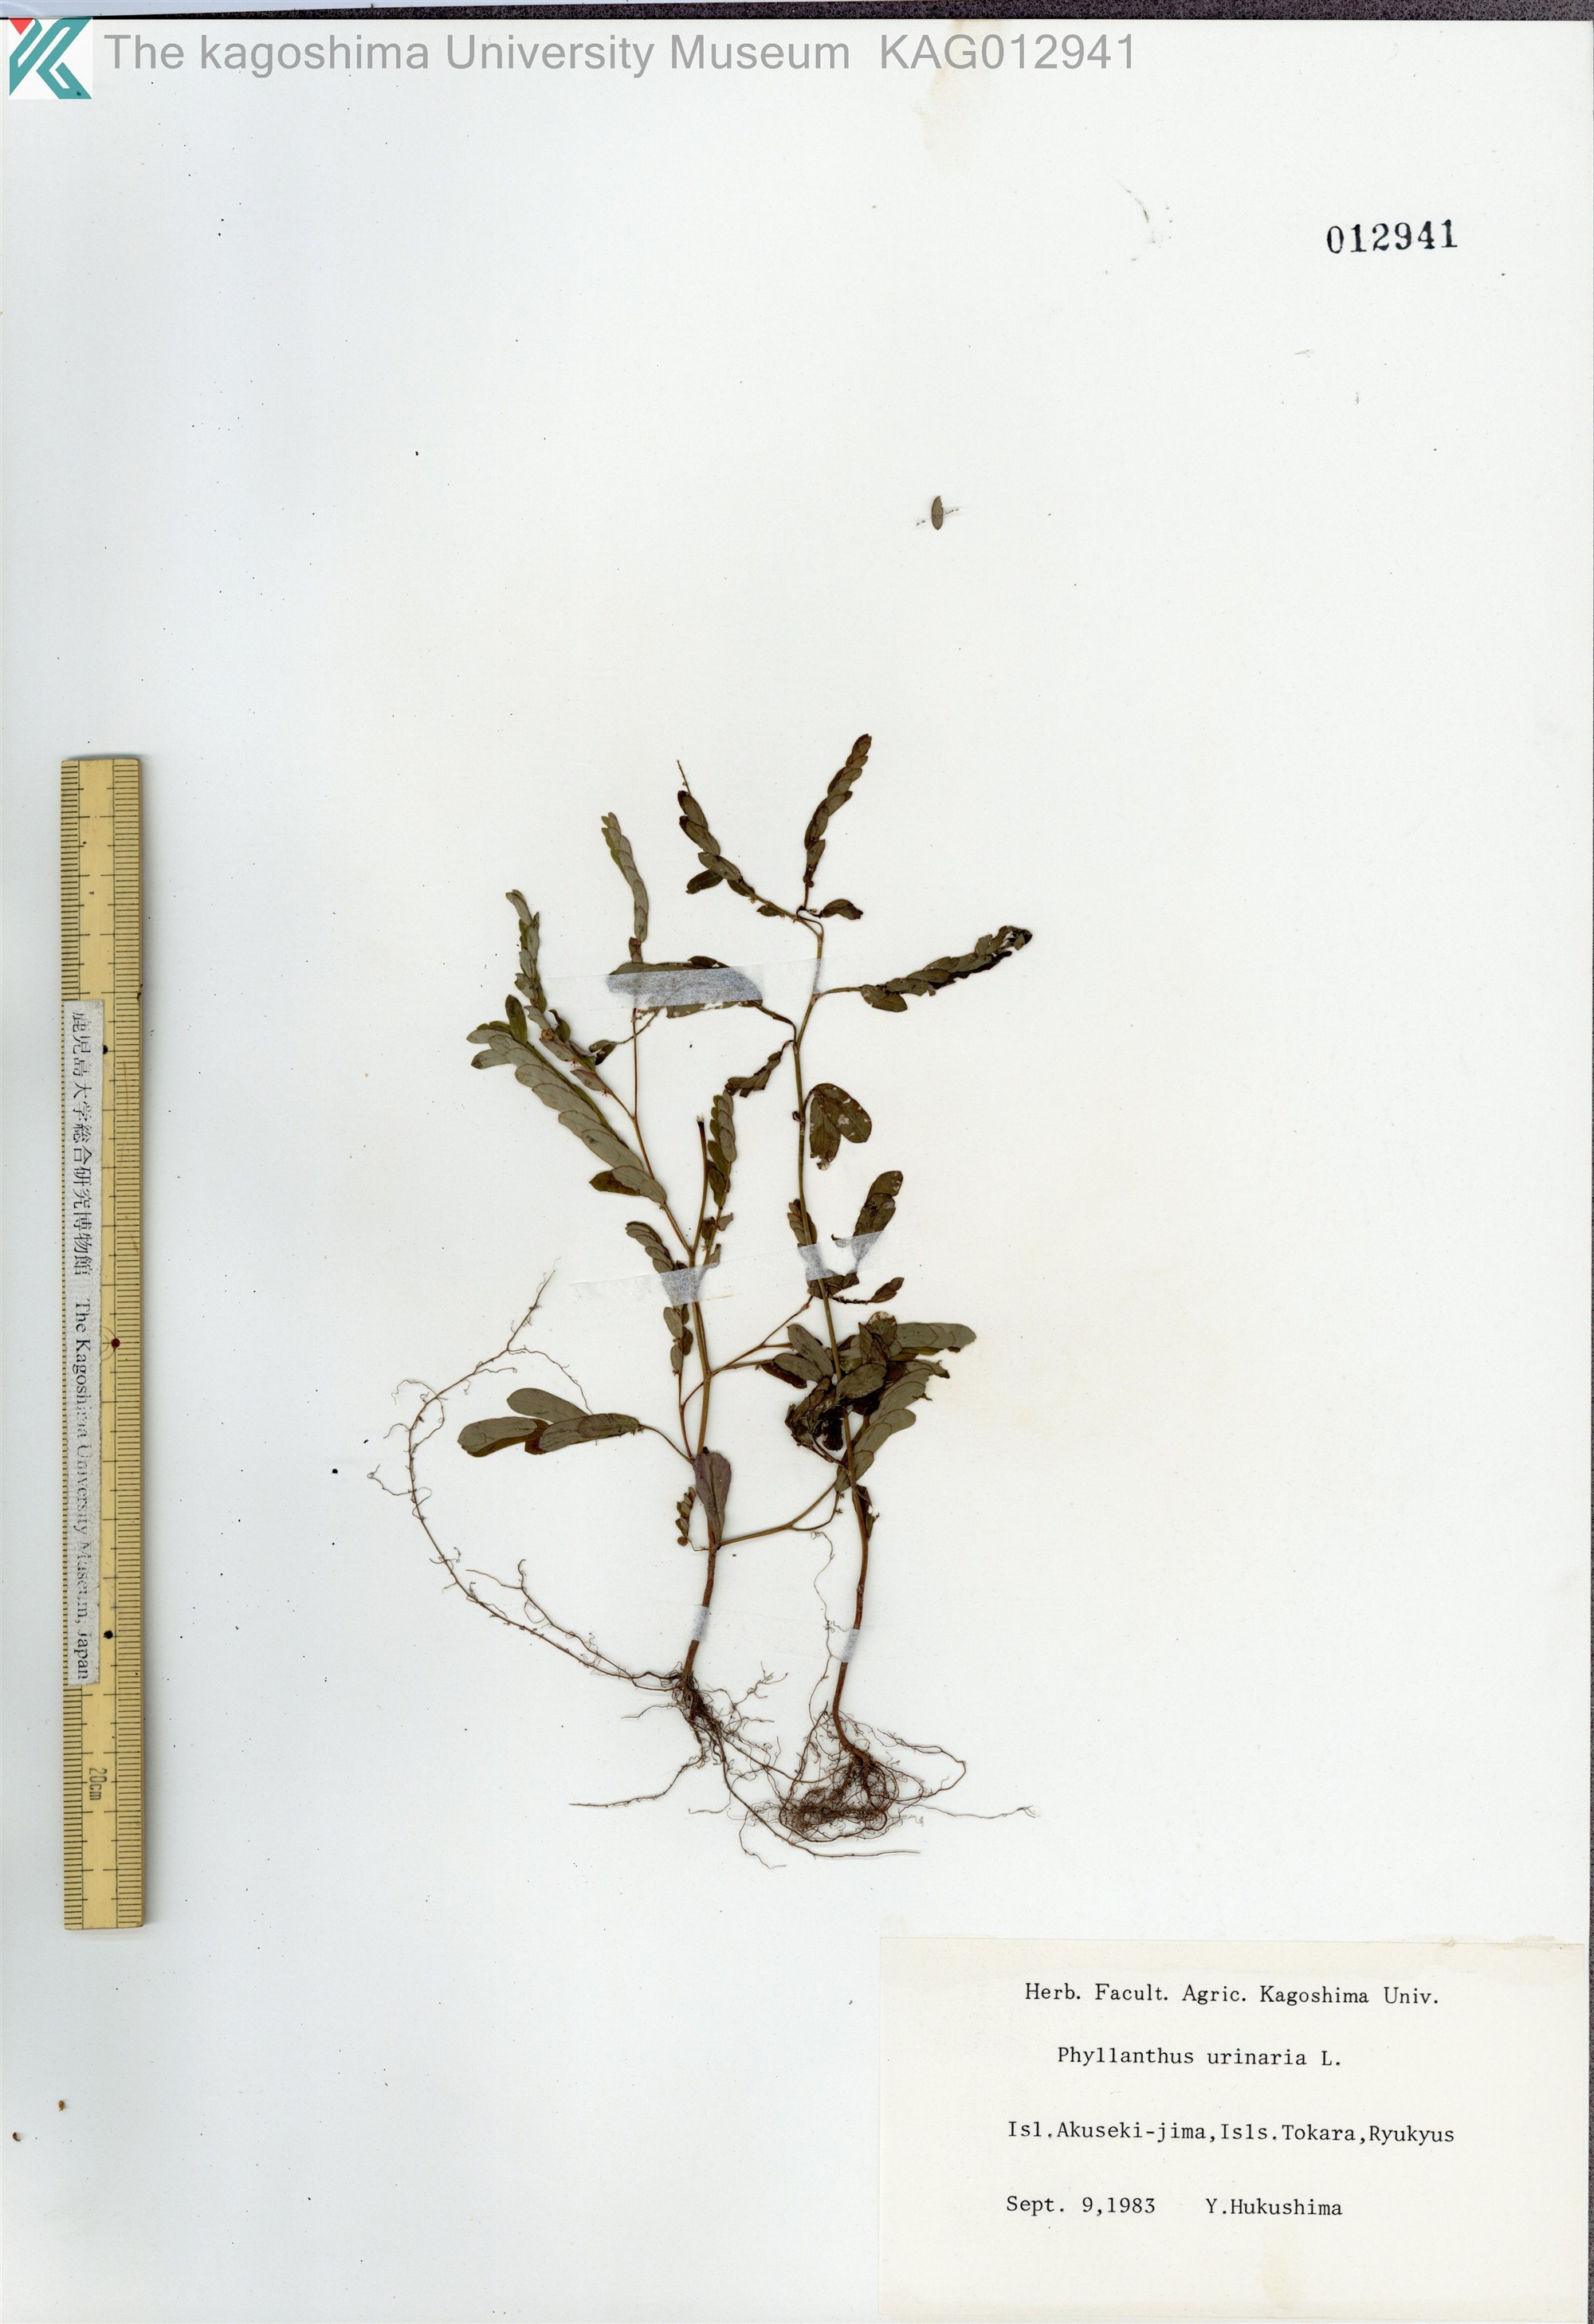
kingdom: Plantae
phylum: Tracheophyta
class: Magnoliopsida
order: Malpighiales
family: Phyllanthaceae
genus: Phyllanthus
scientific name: Phyllanthus urinaria
